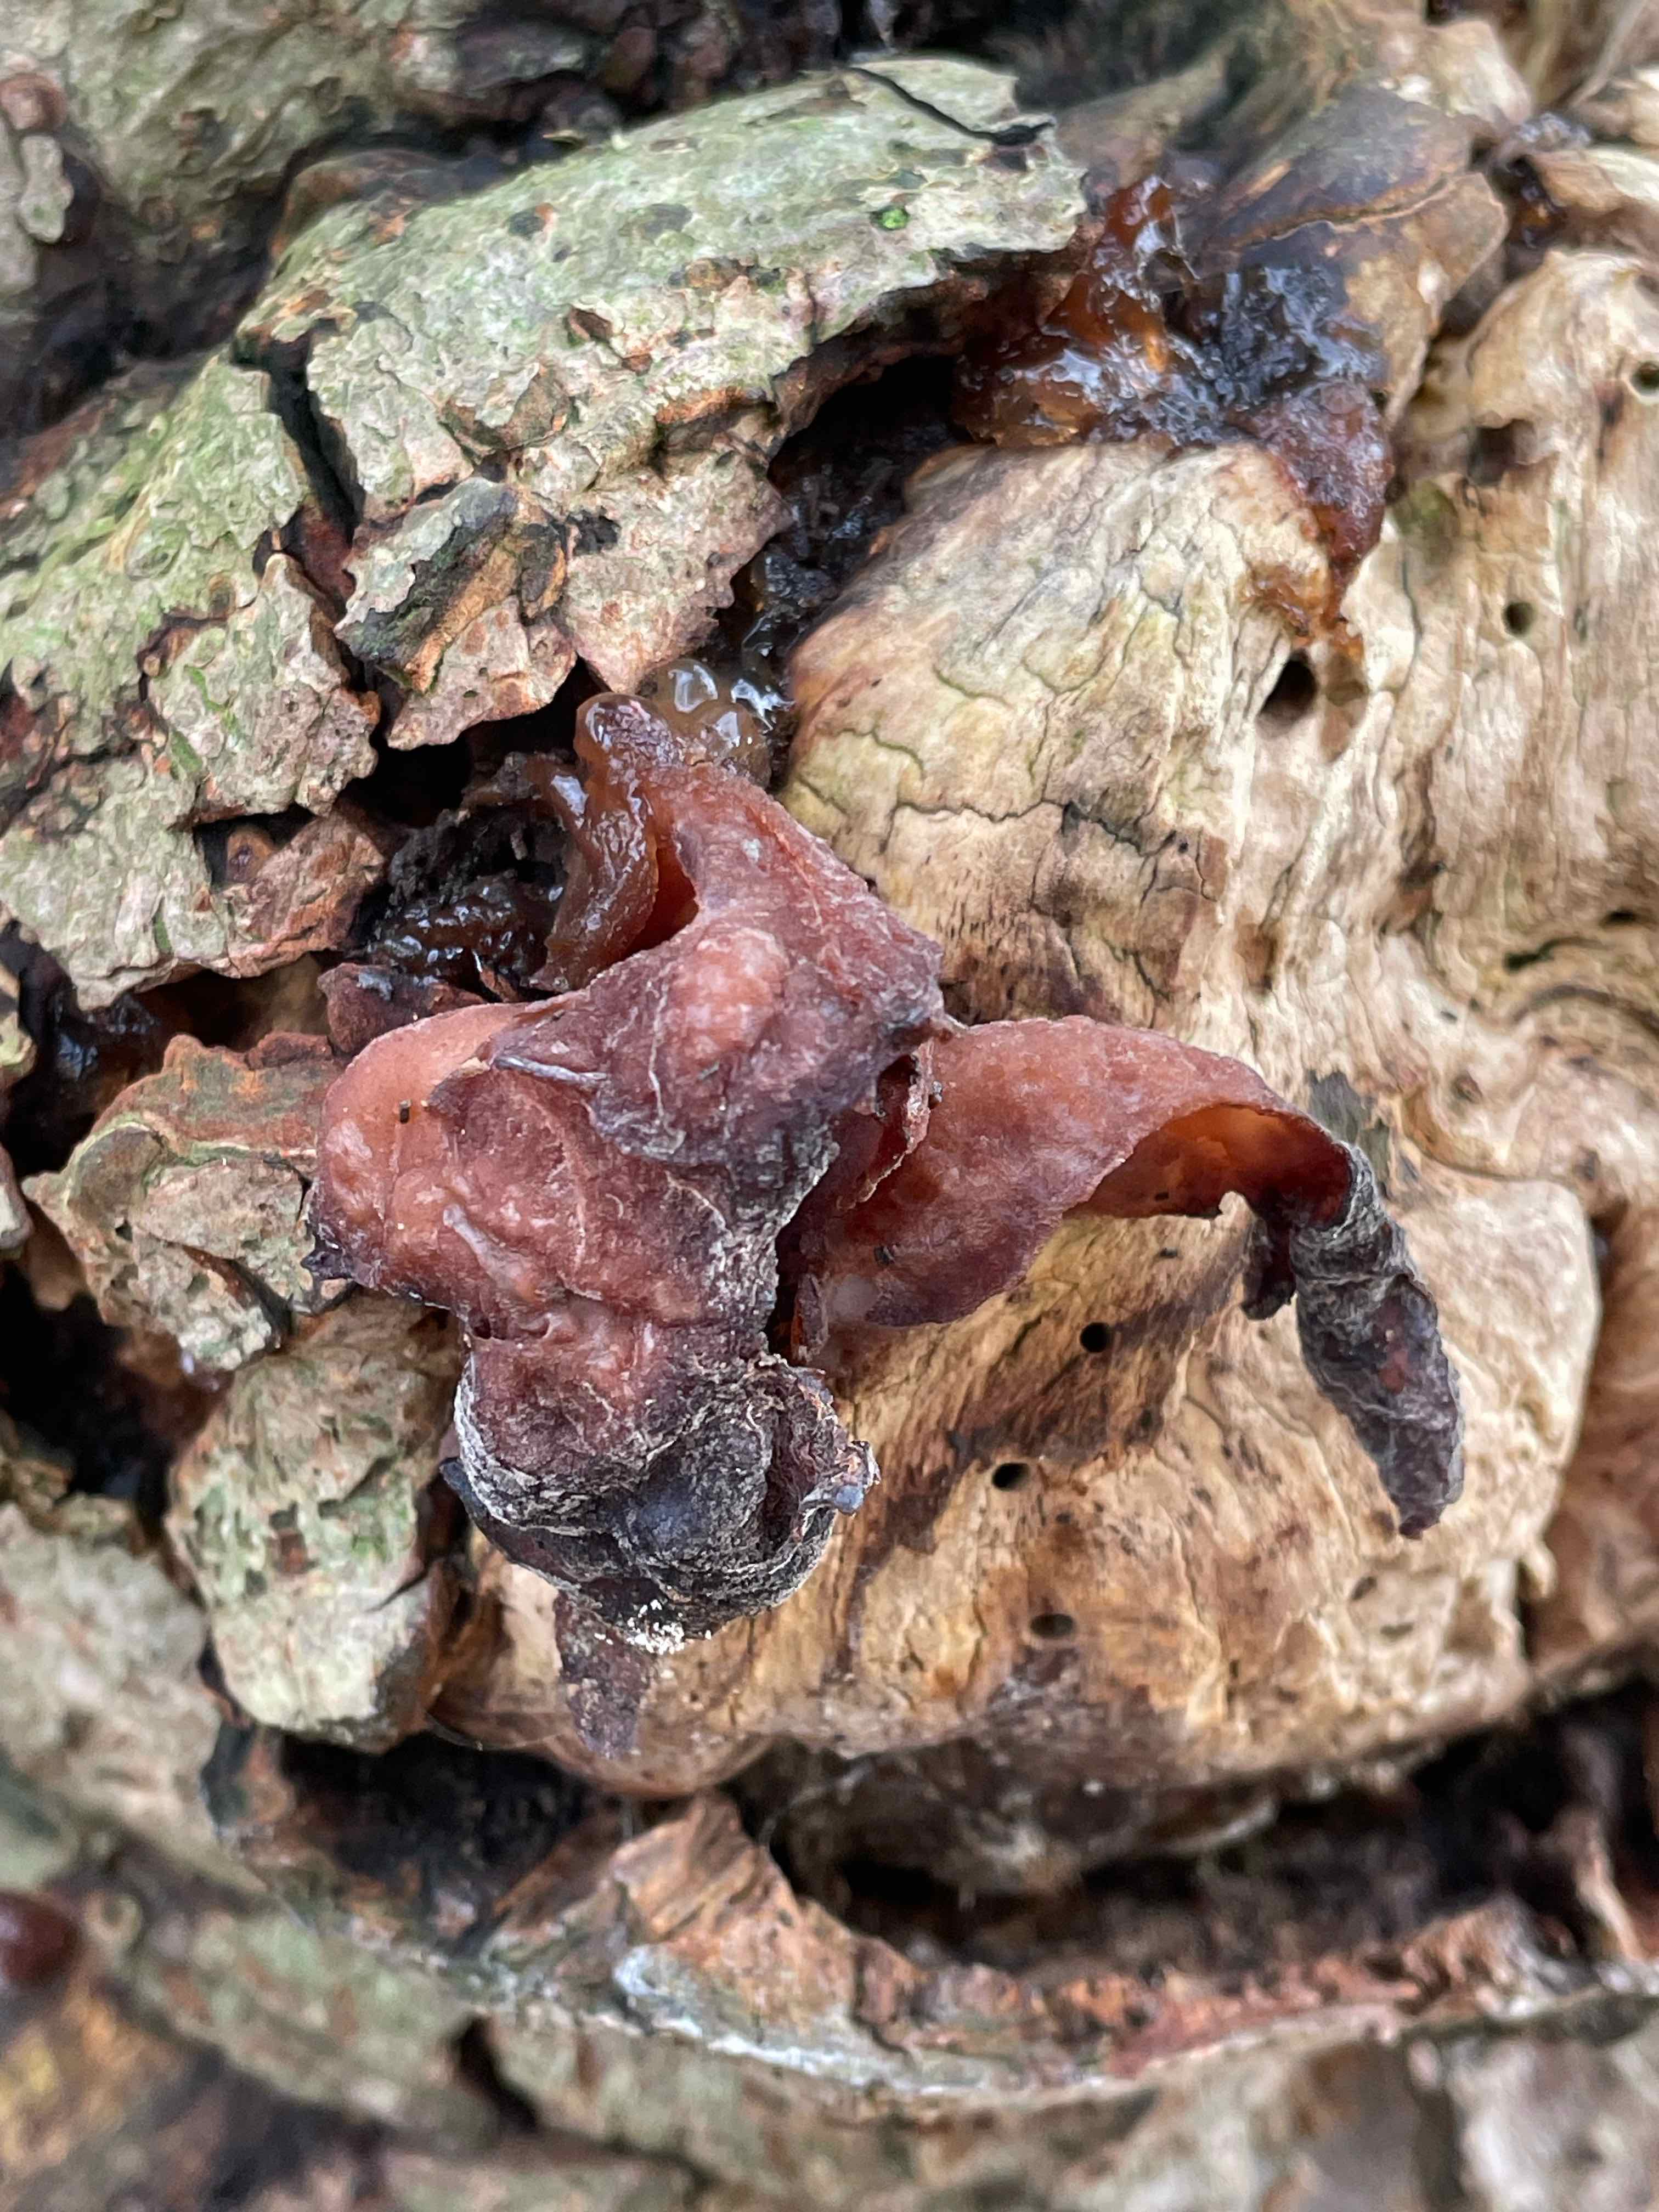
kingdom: Fungi
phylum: Basidiomycota
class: Agaricomycetes
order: Auriculariales
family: Auriculariaceae
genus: Auricularia
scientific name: Auricularia auricula-judae
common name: almindelig judasøre
